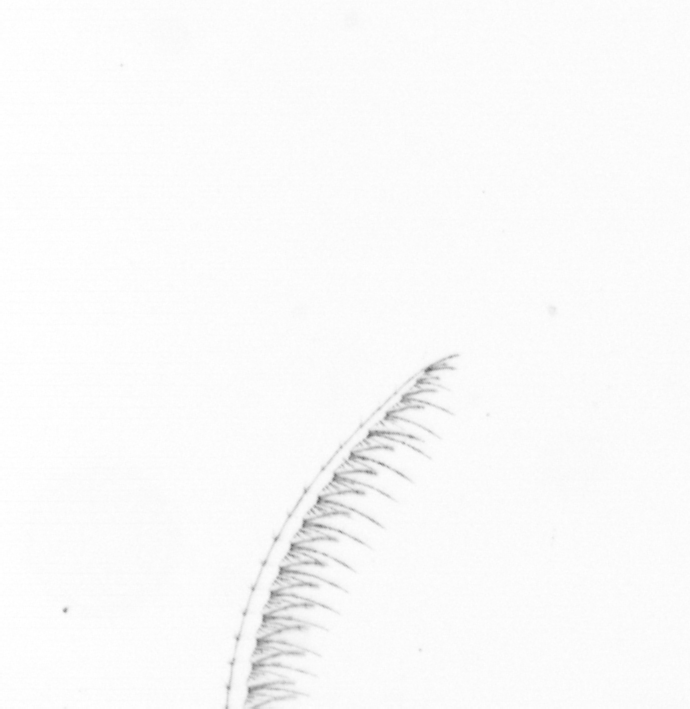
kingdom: Chromista
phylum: Ochrophyta
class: Bacillariophyceae
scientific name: Bacillariophyceae
